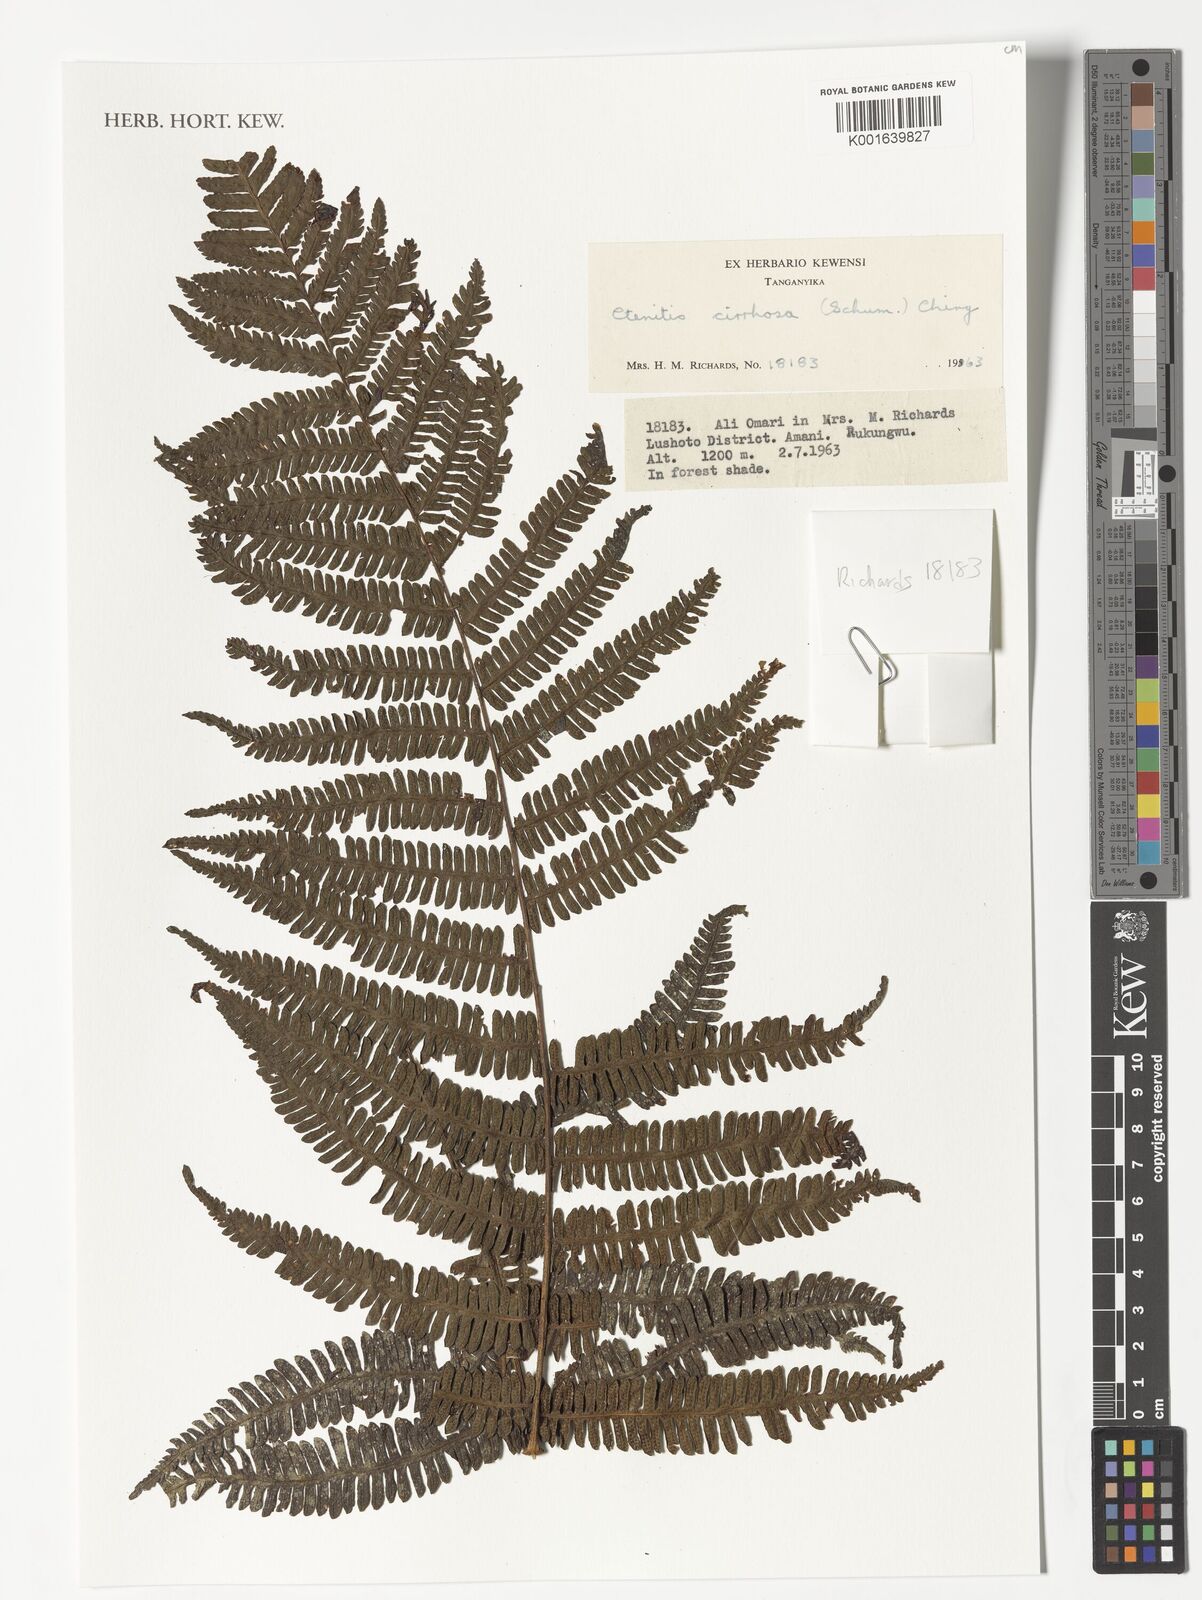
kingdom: Plantae
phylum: Tracheophyta
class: Polypodiopsida
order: Polypodiales
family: Dryopteridaceae
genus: Ctenitis
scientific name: Ctenitis cirrhosa
